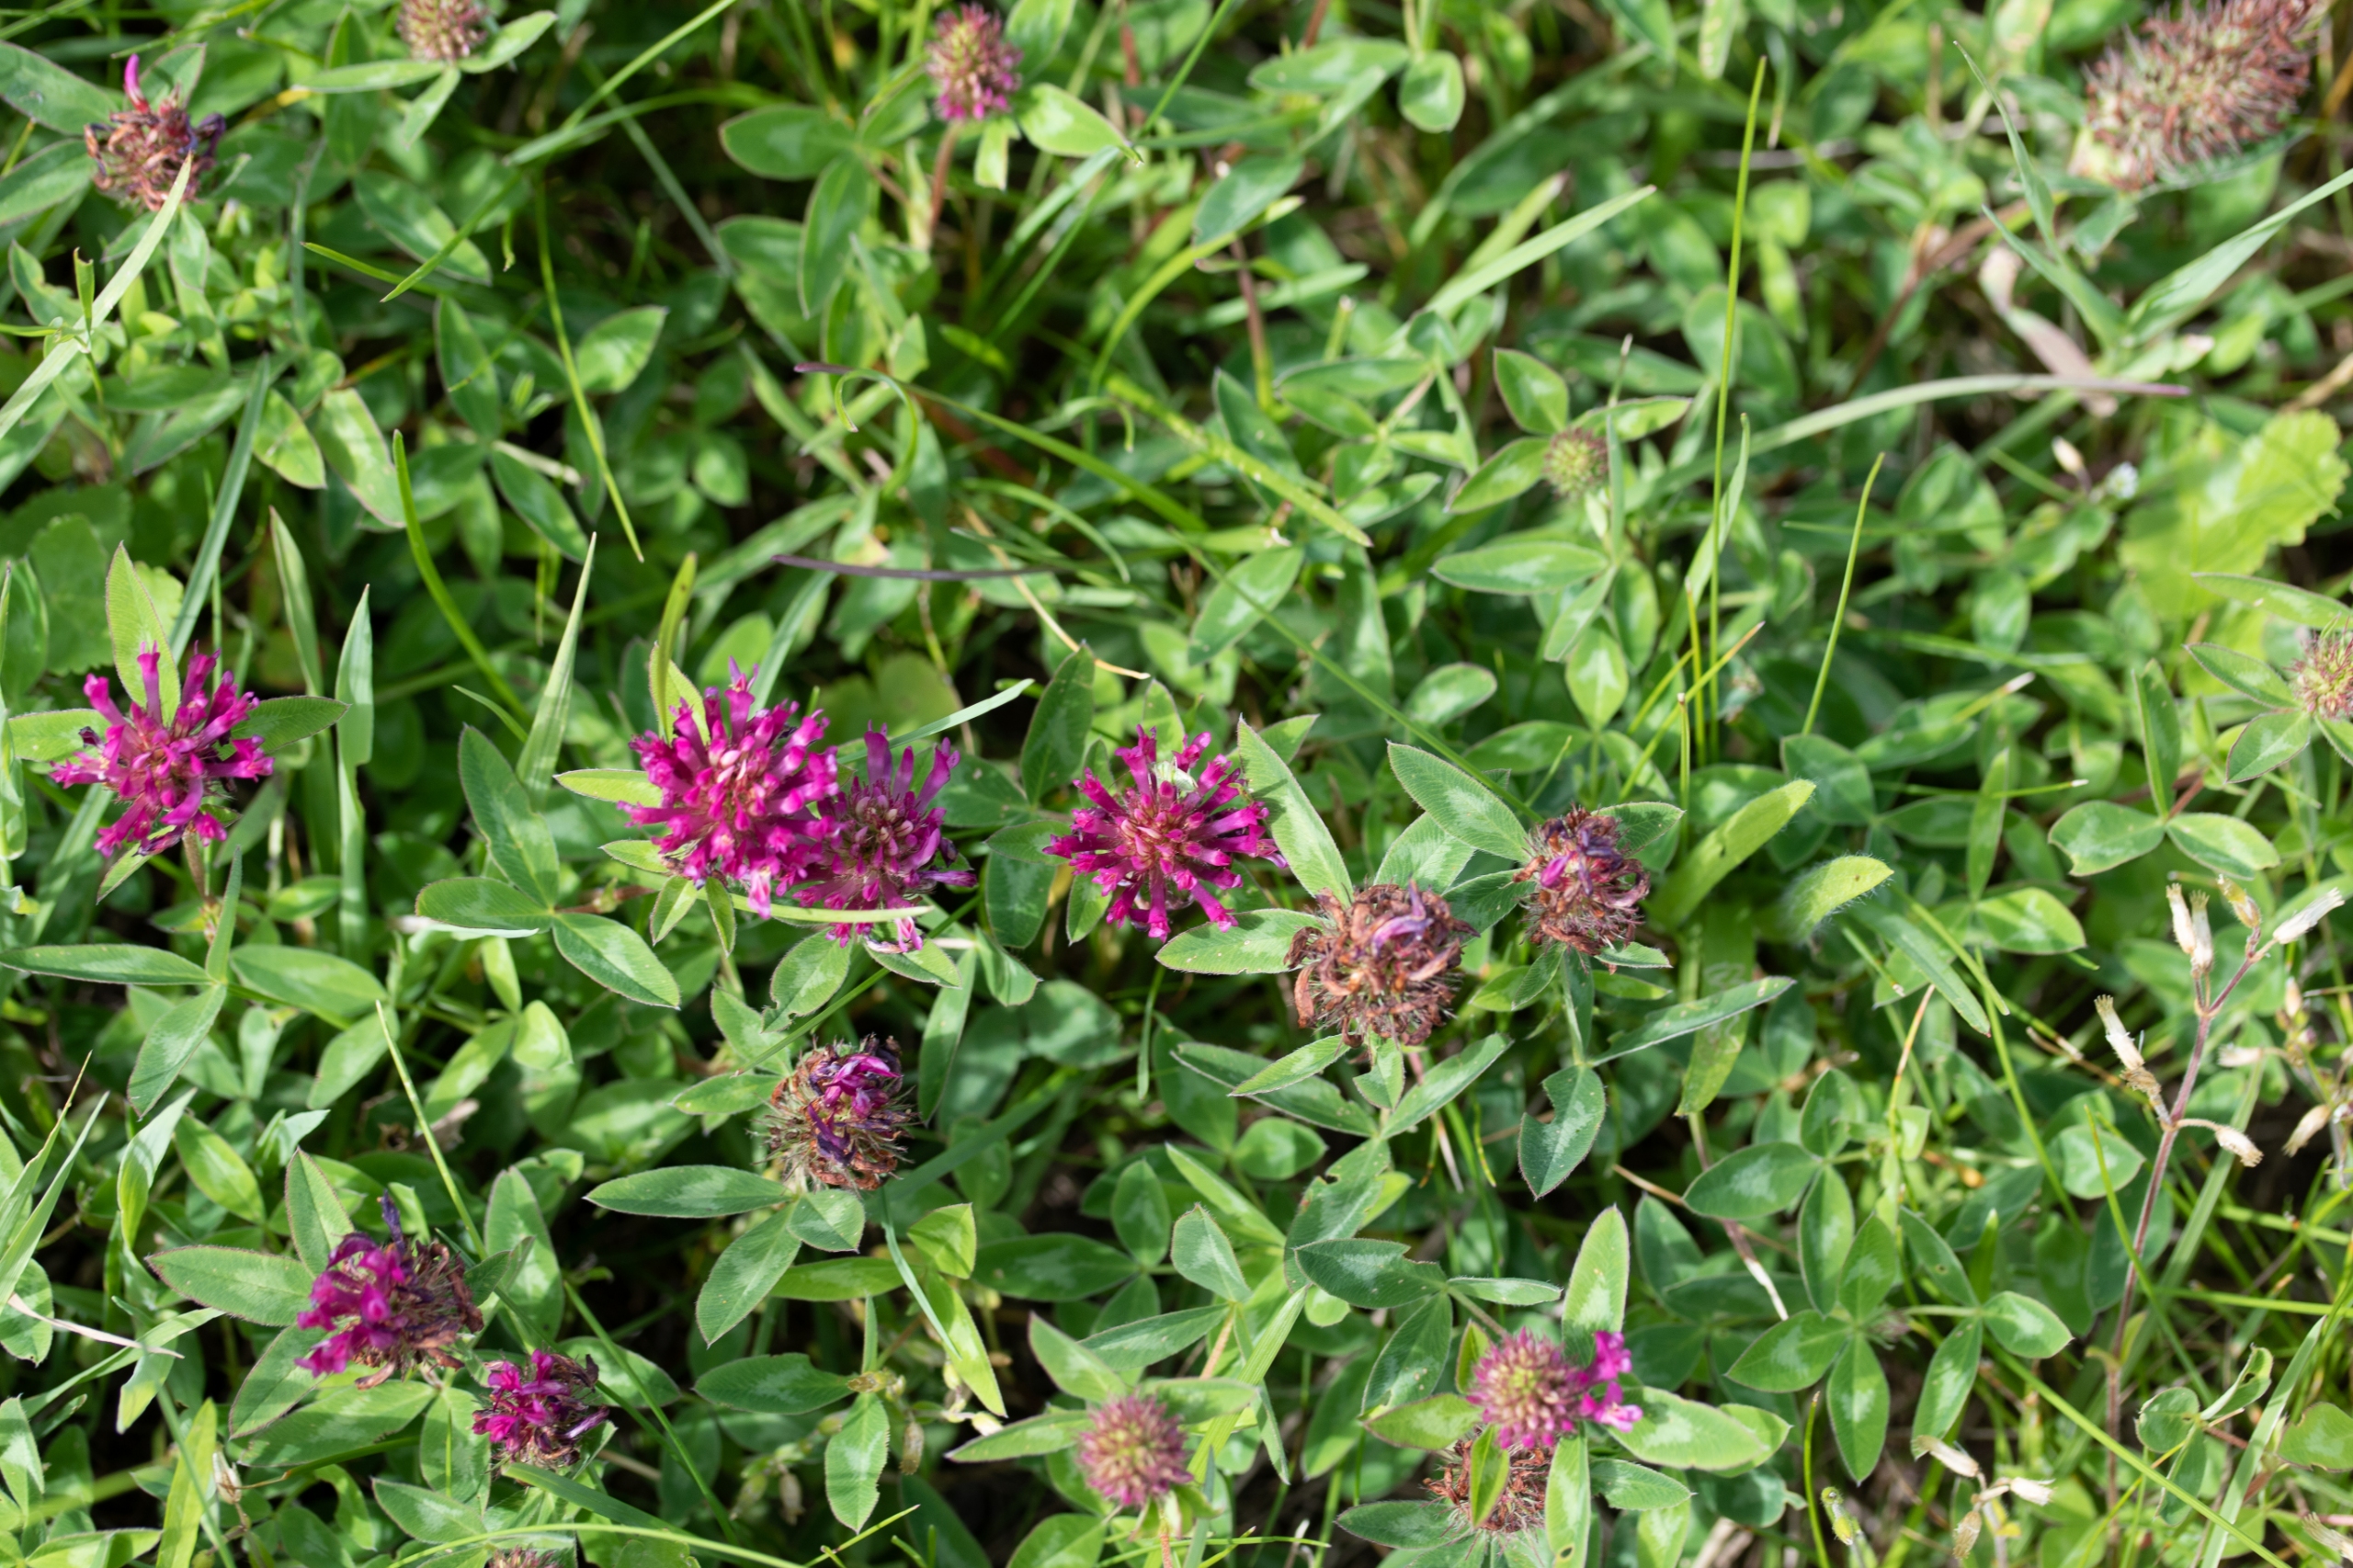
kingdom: Plantae
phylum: Tracheophyta
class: Magnoliopsida
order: Fabales
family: Fabaceae
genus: Trifolium
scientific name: Trifolium medium
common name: Bugtet kløver
